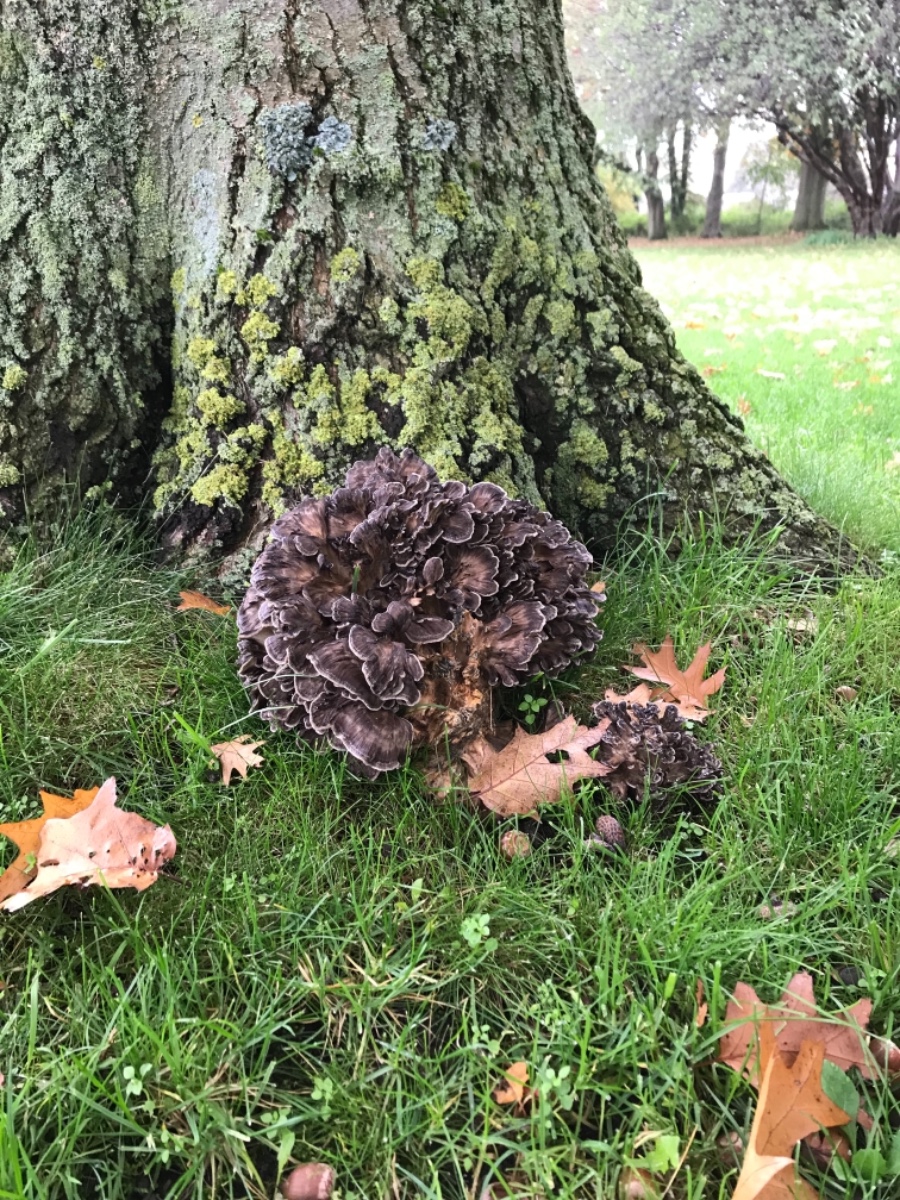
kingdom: Fungi
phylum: Basidiomycota
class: Agaricomycetes
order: Polyporales
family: Grifolaceae
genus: Grifola
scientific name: Grifola frondosa
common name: tueporesvamp
